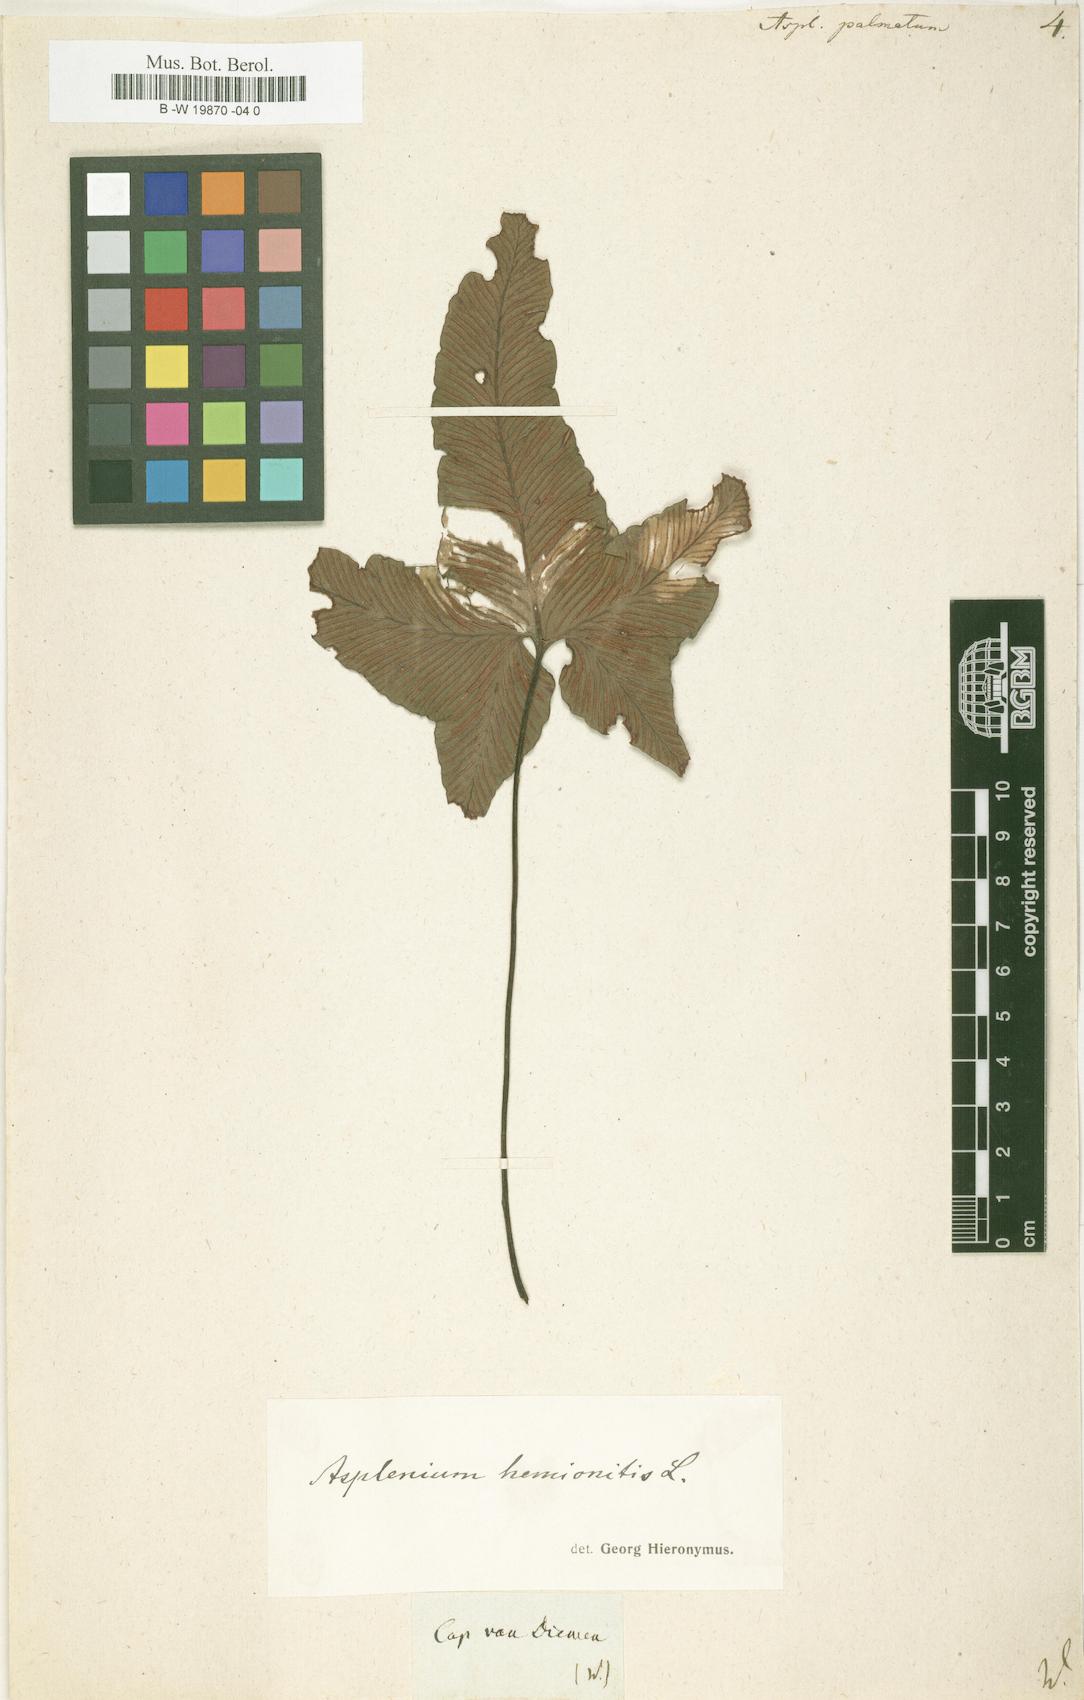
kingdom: Plantae
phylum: Tracheophyta
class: Polypodiopsida
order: Polypodiales
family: Aspleniaceae
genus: Asplenium
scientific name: Asplenium hemionitis
